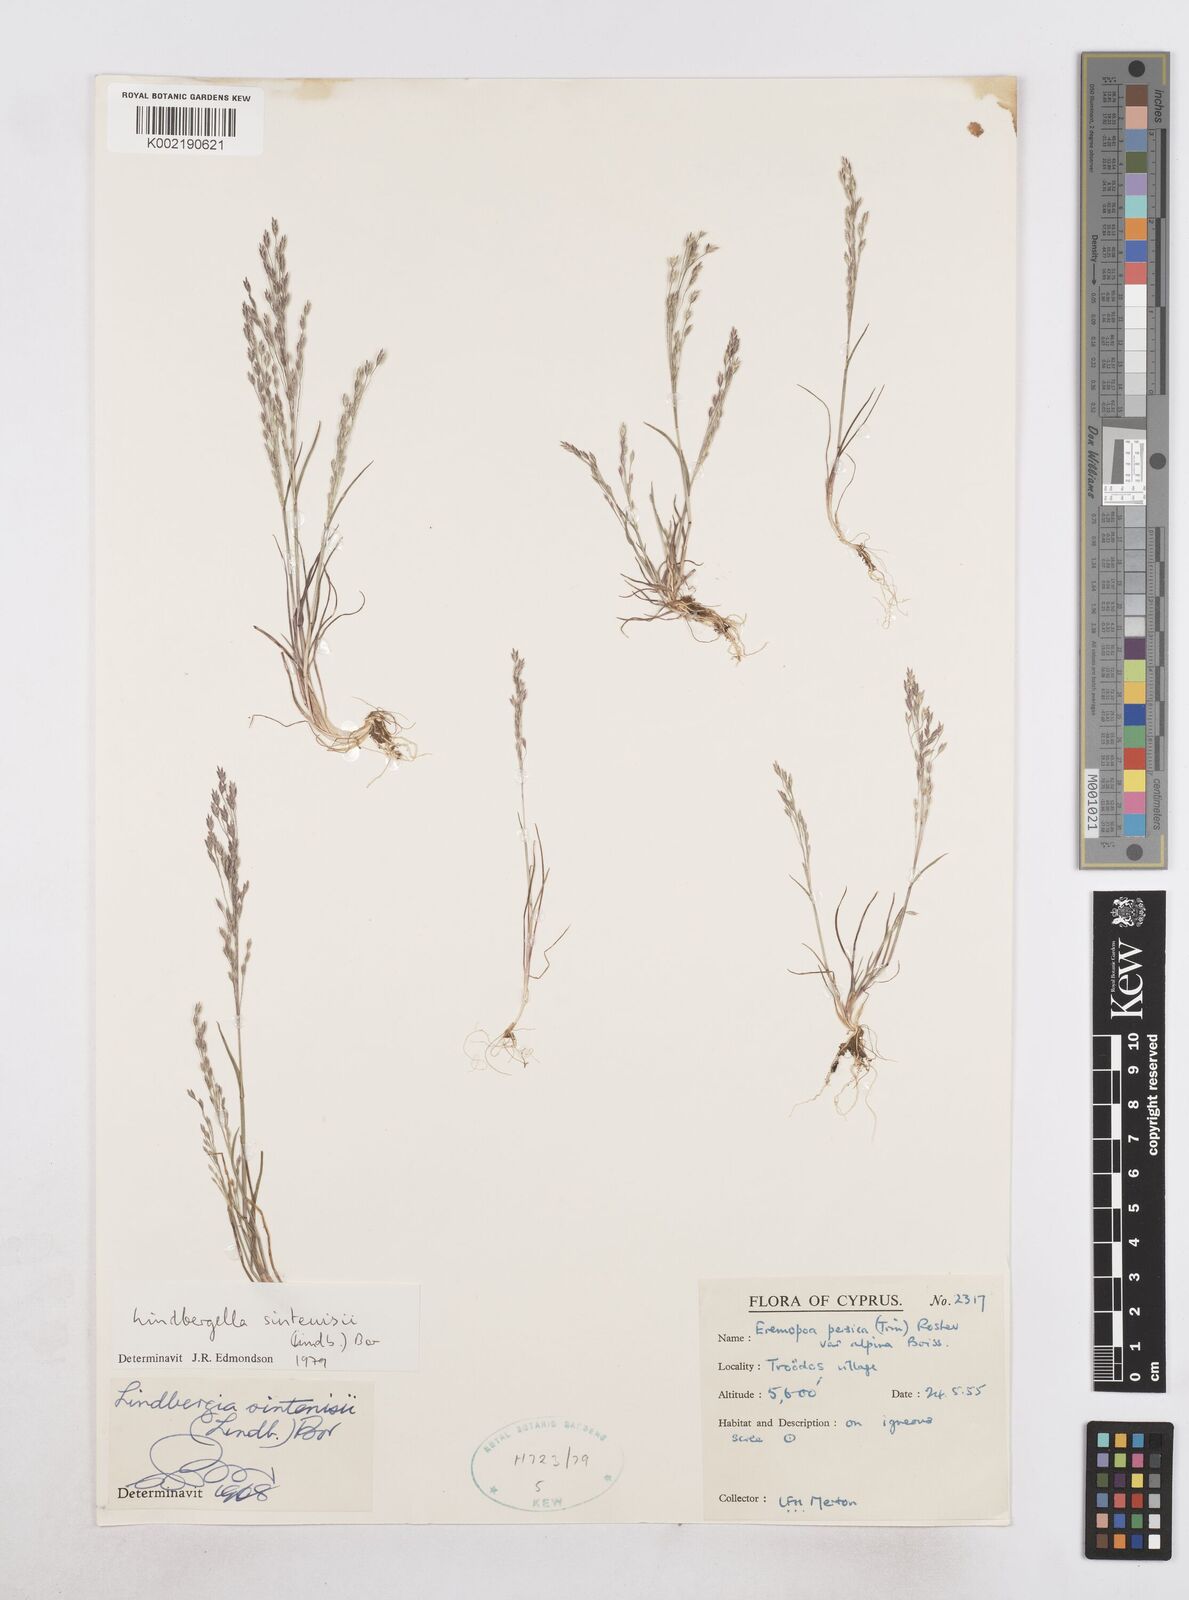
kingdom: Plantae
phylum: Tracheophyta
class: Liliopsida
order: Poales
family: Poaceae
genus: Poa
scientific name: Poa sintenisii
